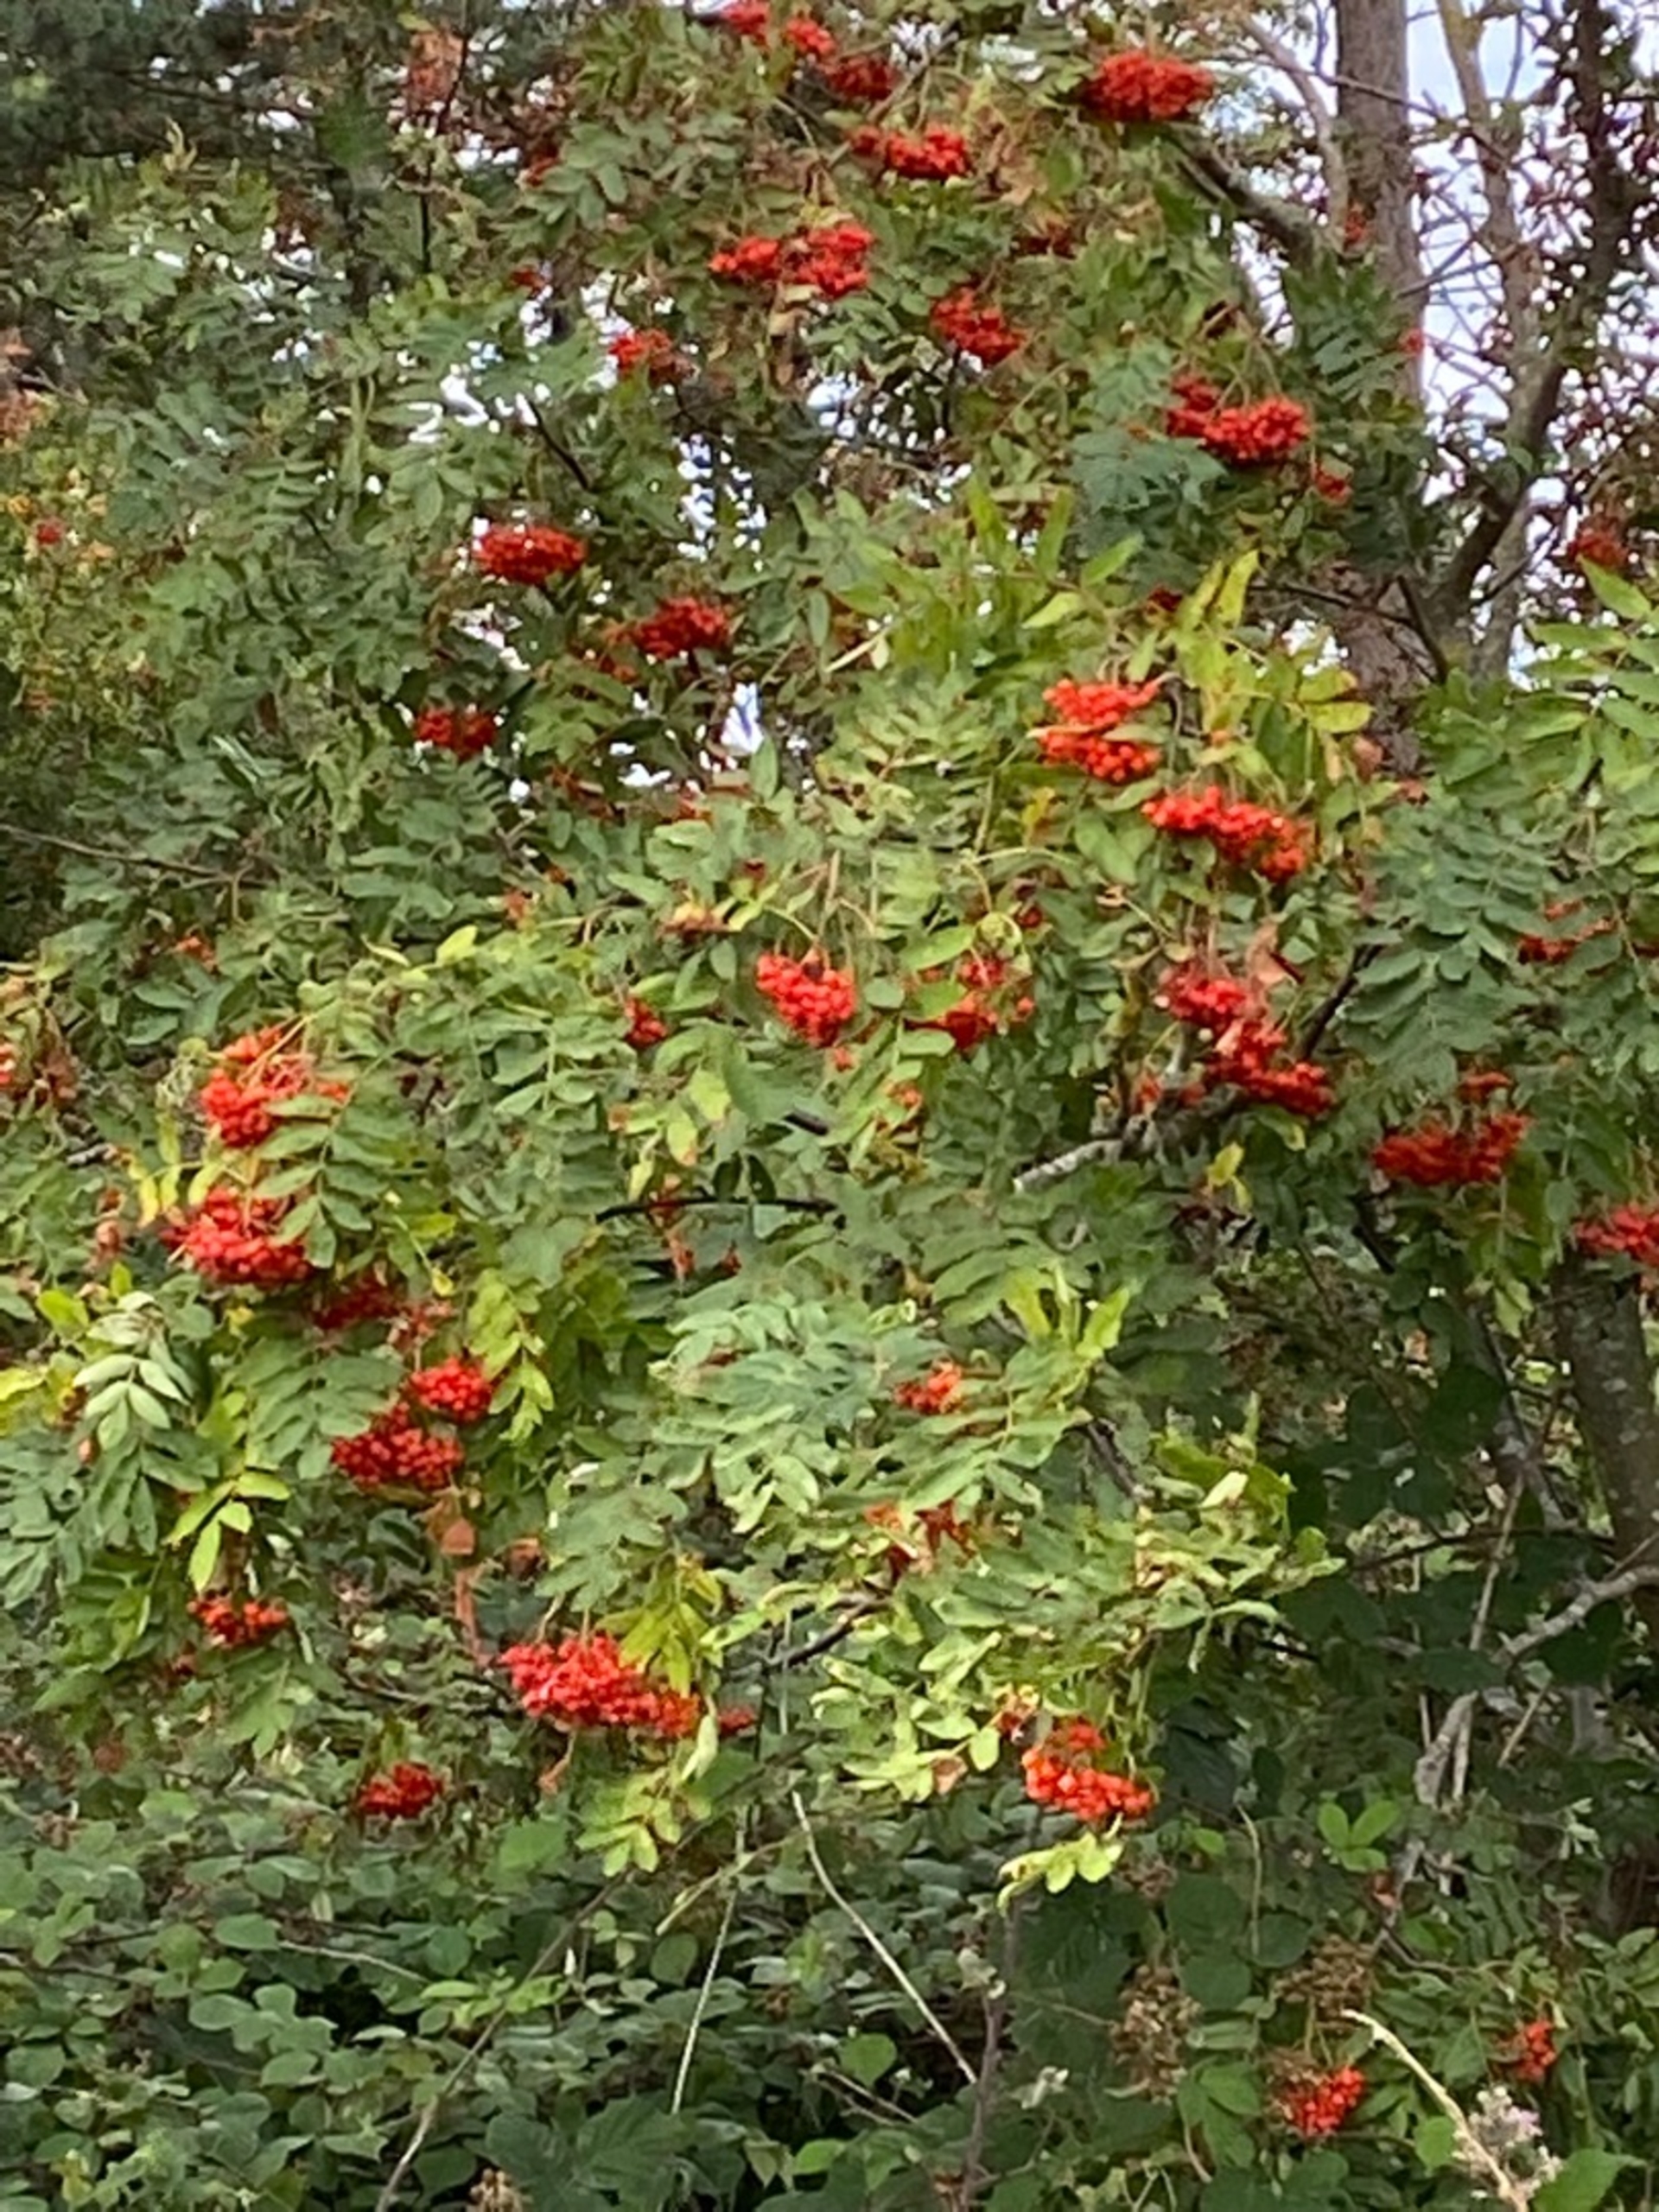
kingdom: Plantae
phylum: Tracheophyta
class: Magnoliopsida
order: Rosales
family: Rosaceae
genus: Sorbus
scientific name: Sorbus aucuparia
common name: Almindelig røn
